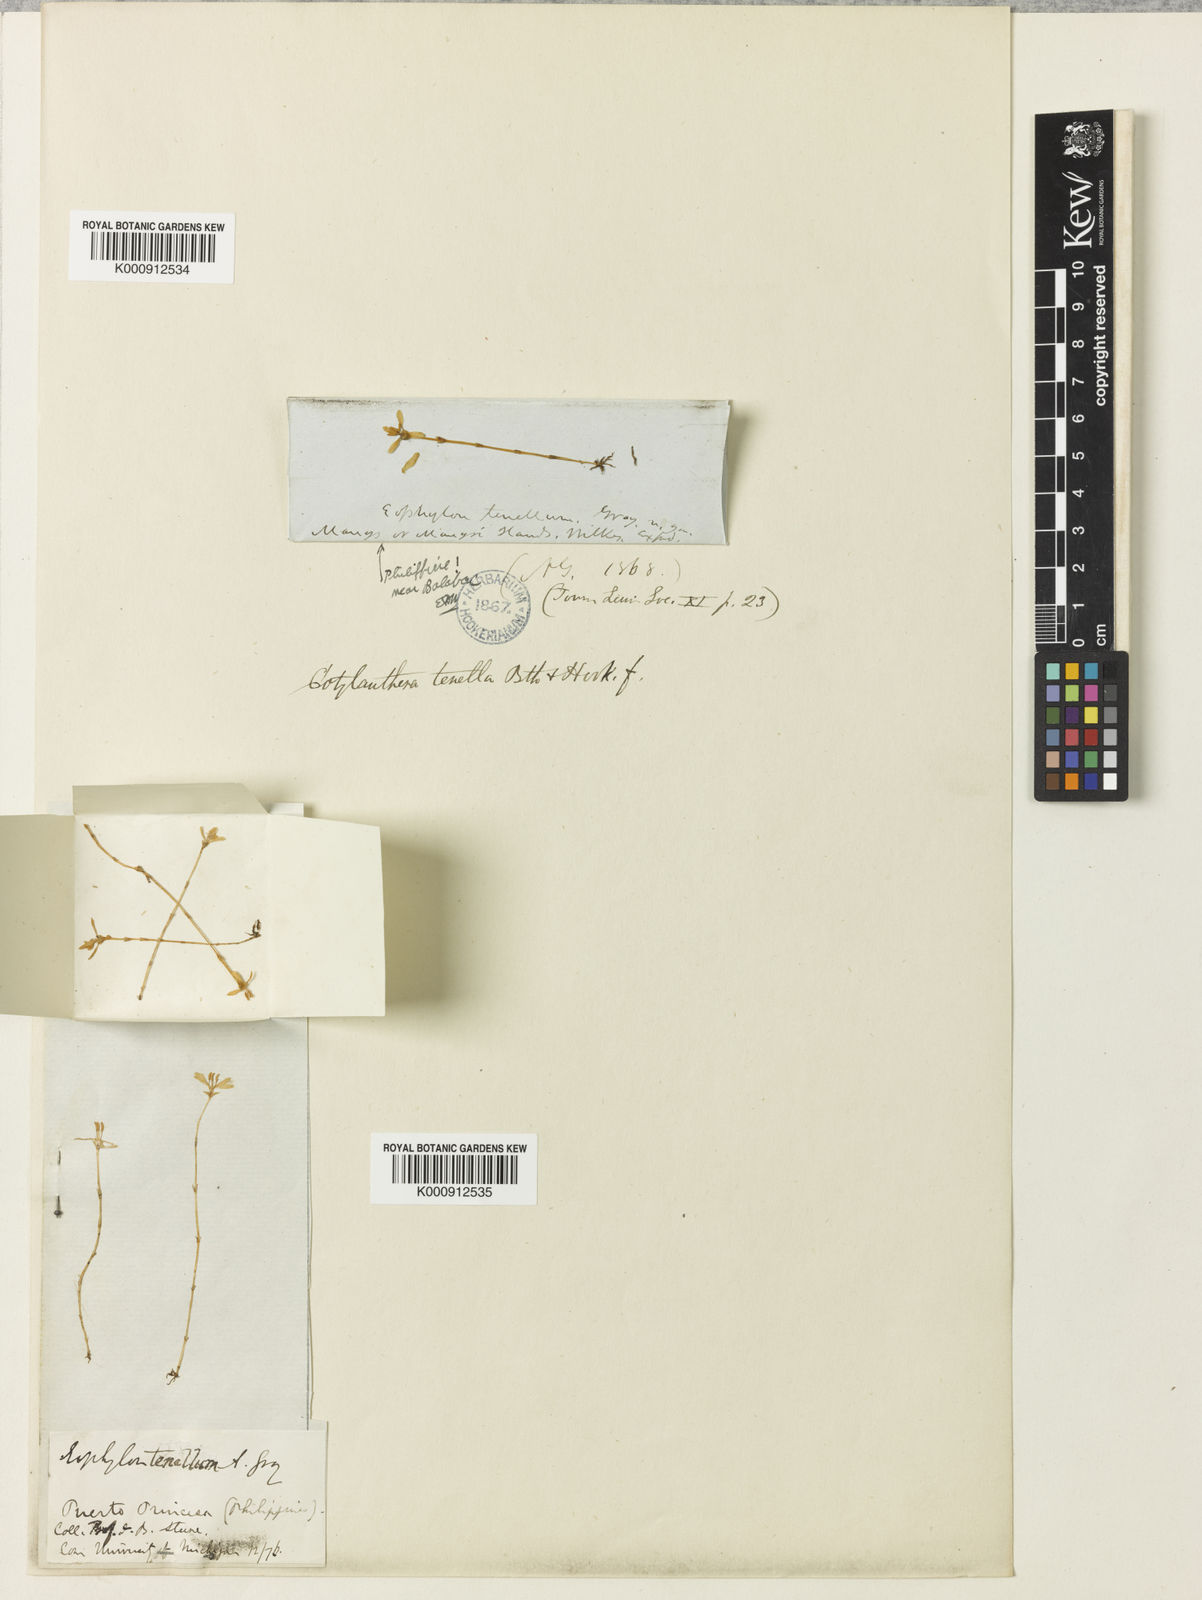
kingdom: Plantae
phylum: Tracheophyta
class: Magnoliopsida
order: Gentianales
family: Gentianaceae
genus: Exacum
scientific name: Exacum tenue
